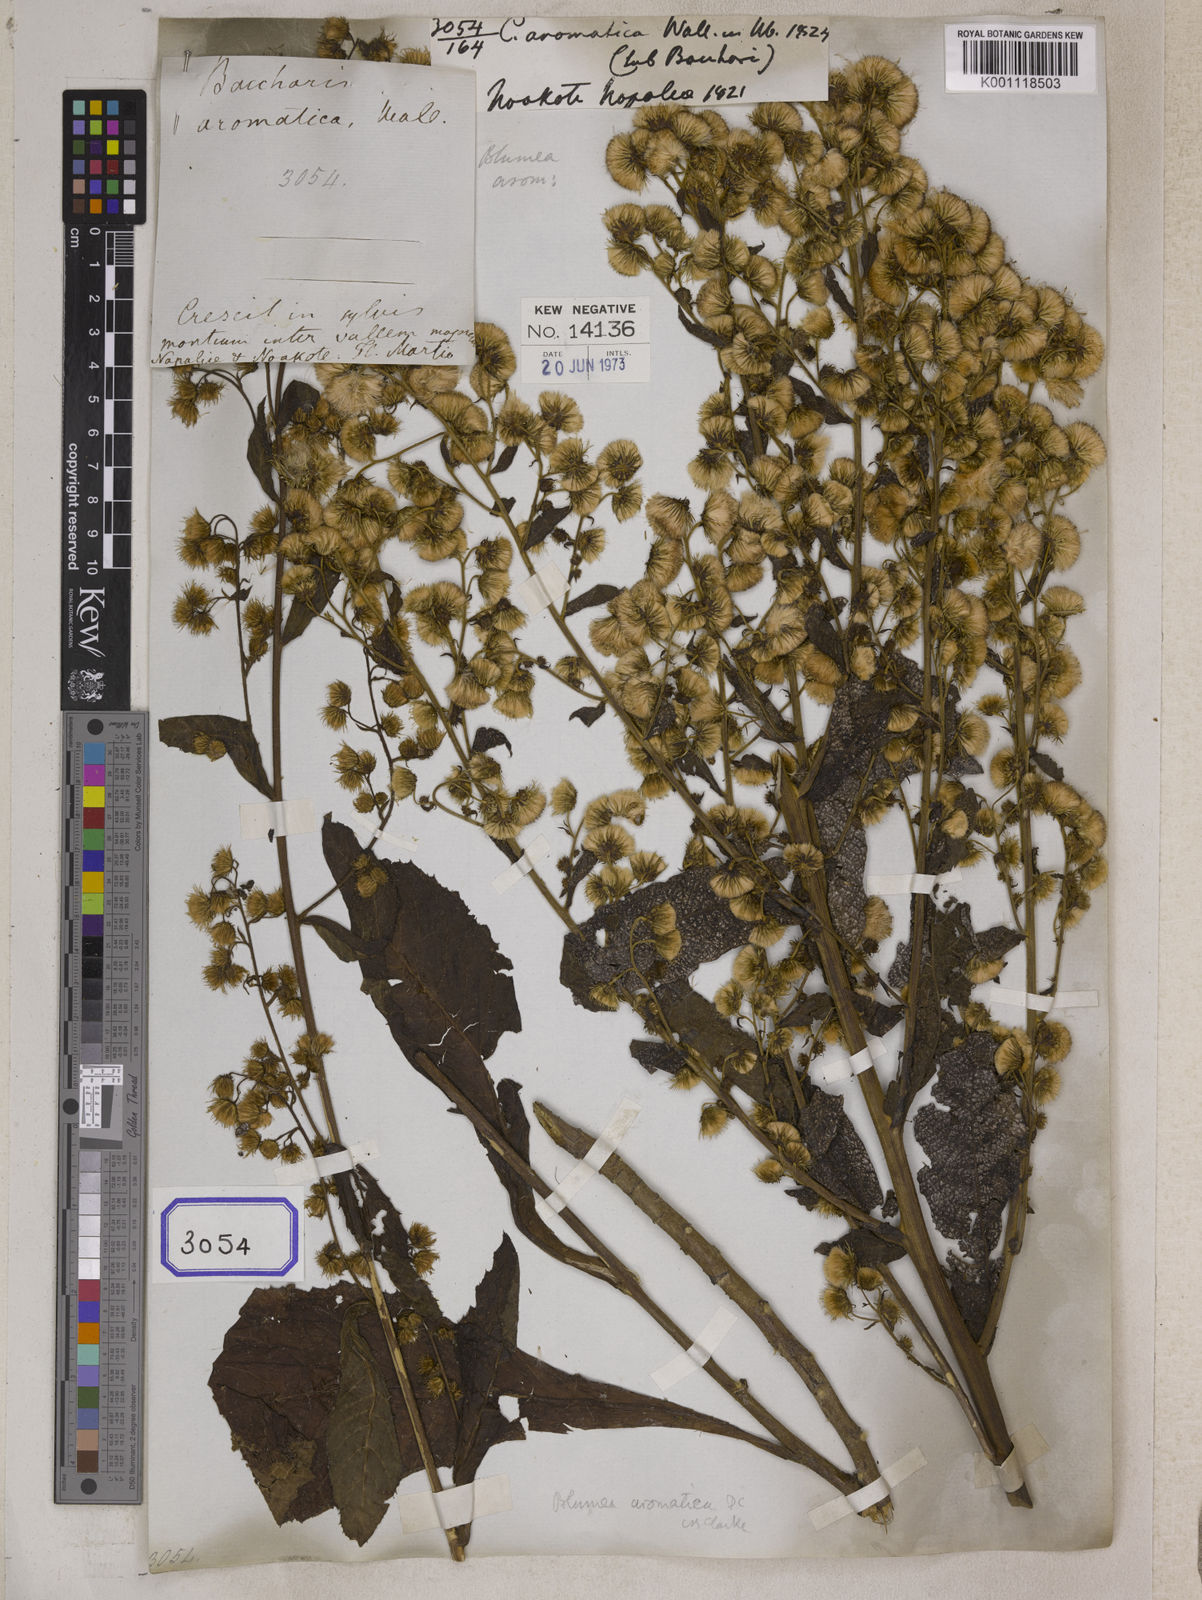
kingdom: Plantae
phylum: Tracheophyta
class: Magnoliopsida
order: Asterales
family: Asteraceae
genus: Blumea
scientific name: Blumea aromatica
